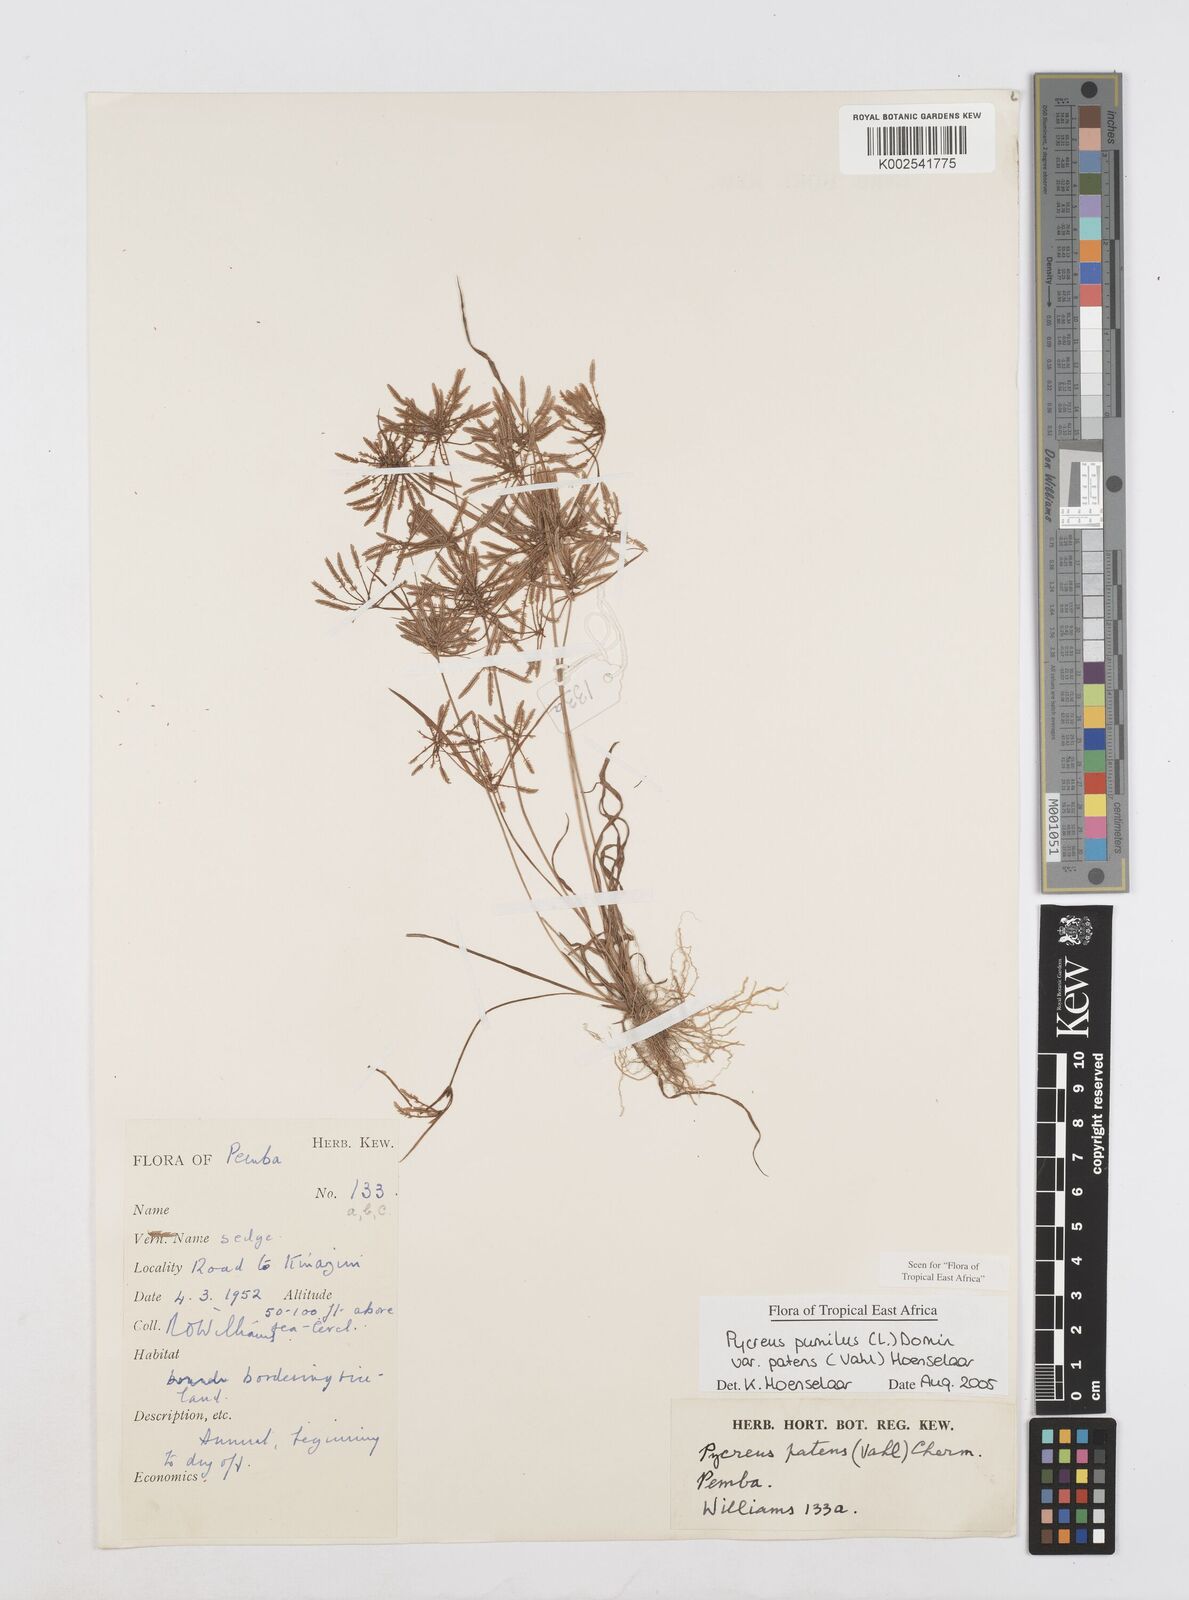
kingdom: Plantae
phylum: Tracheophyta
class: Liliopsida
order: Poales
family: Cyperaceae
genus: Cyperus
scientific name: Cyperus pumilus
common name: Low flatsedge
